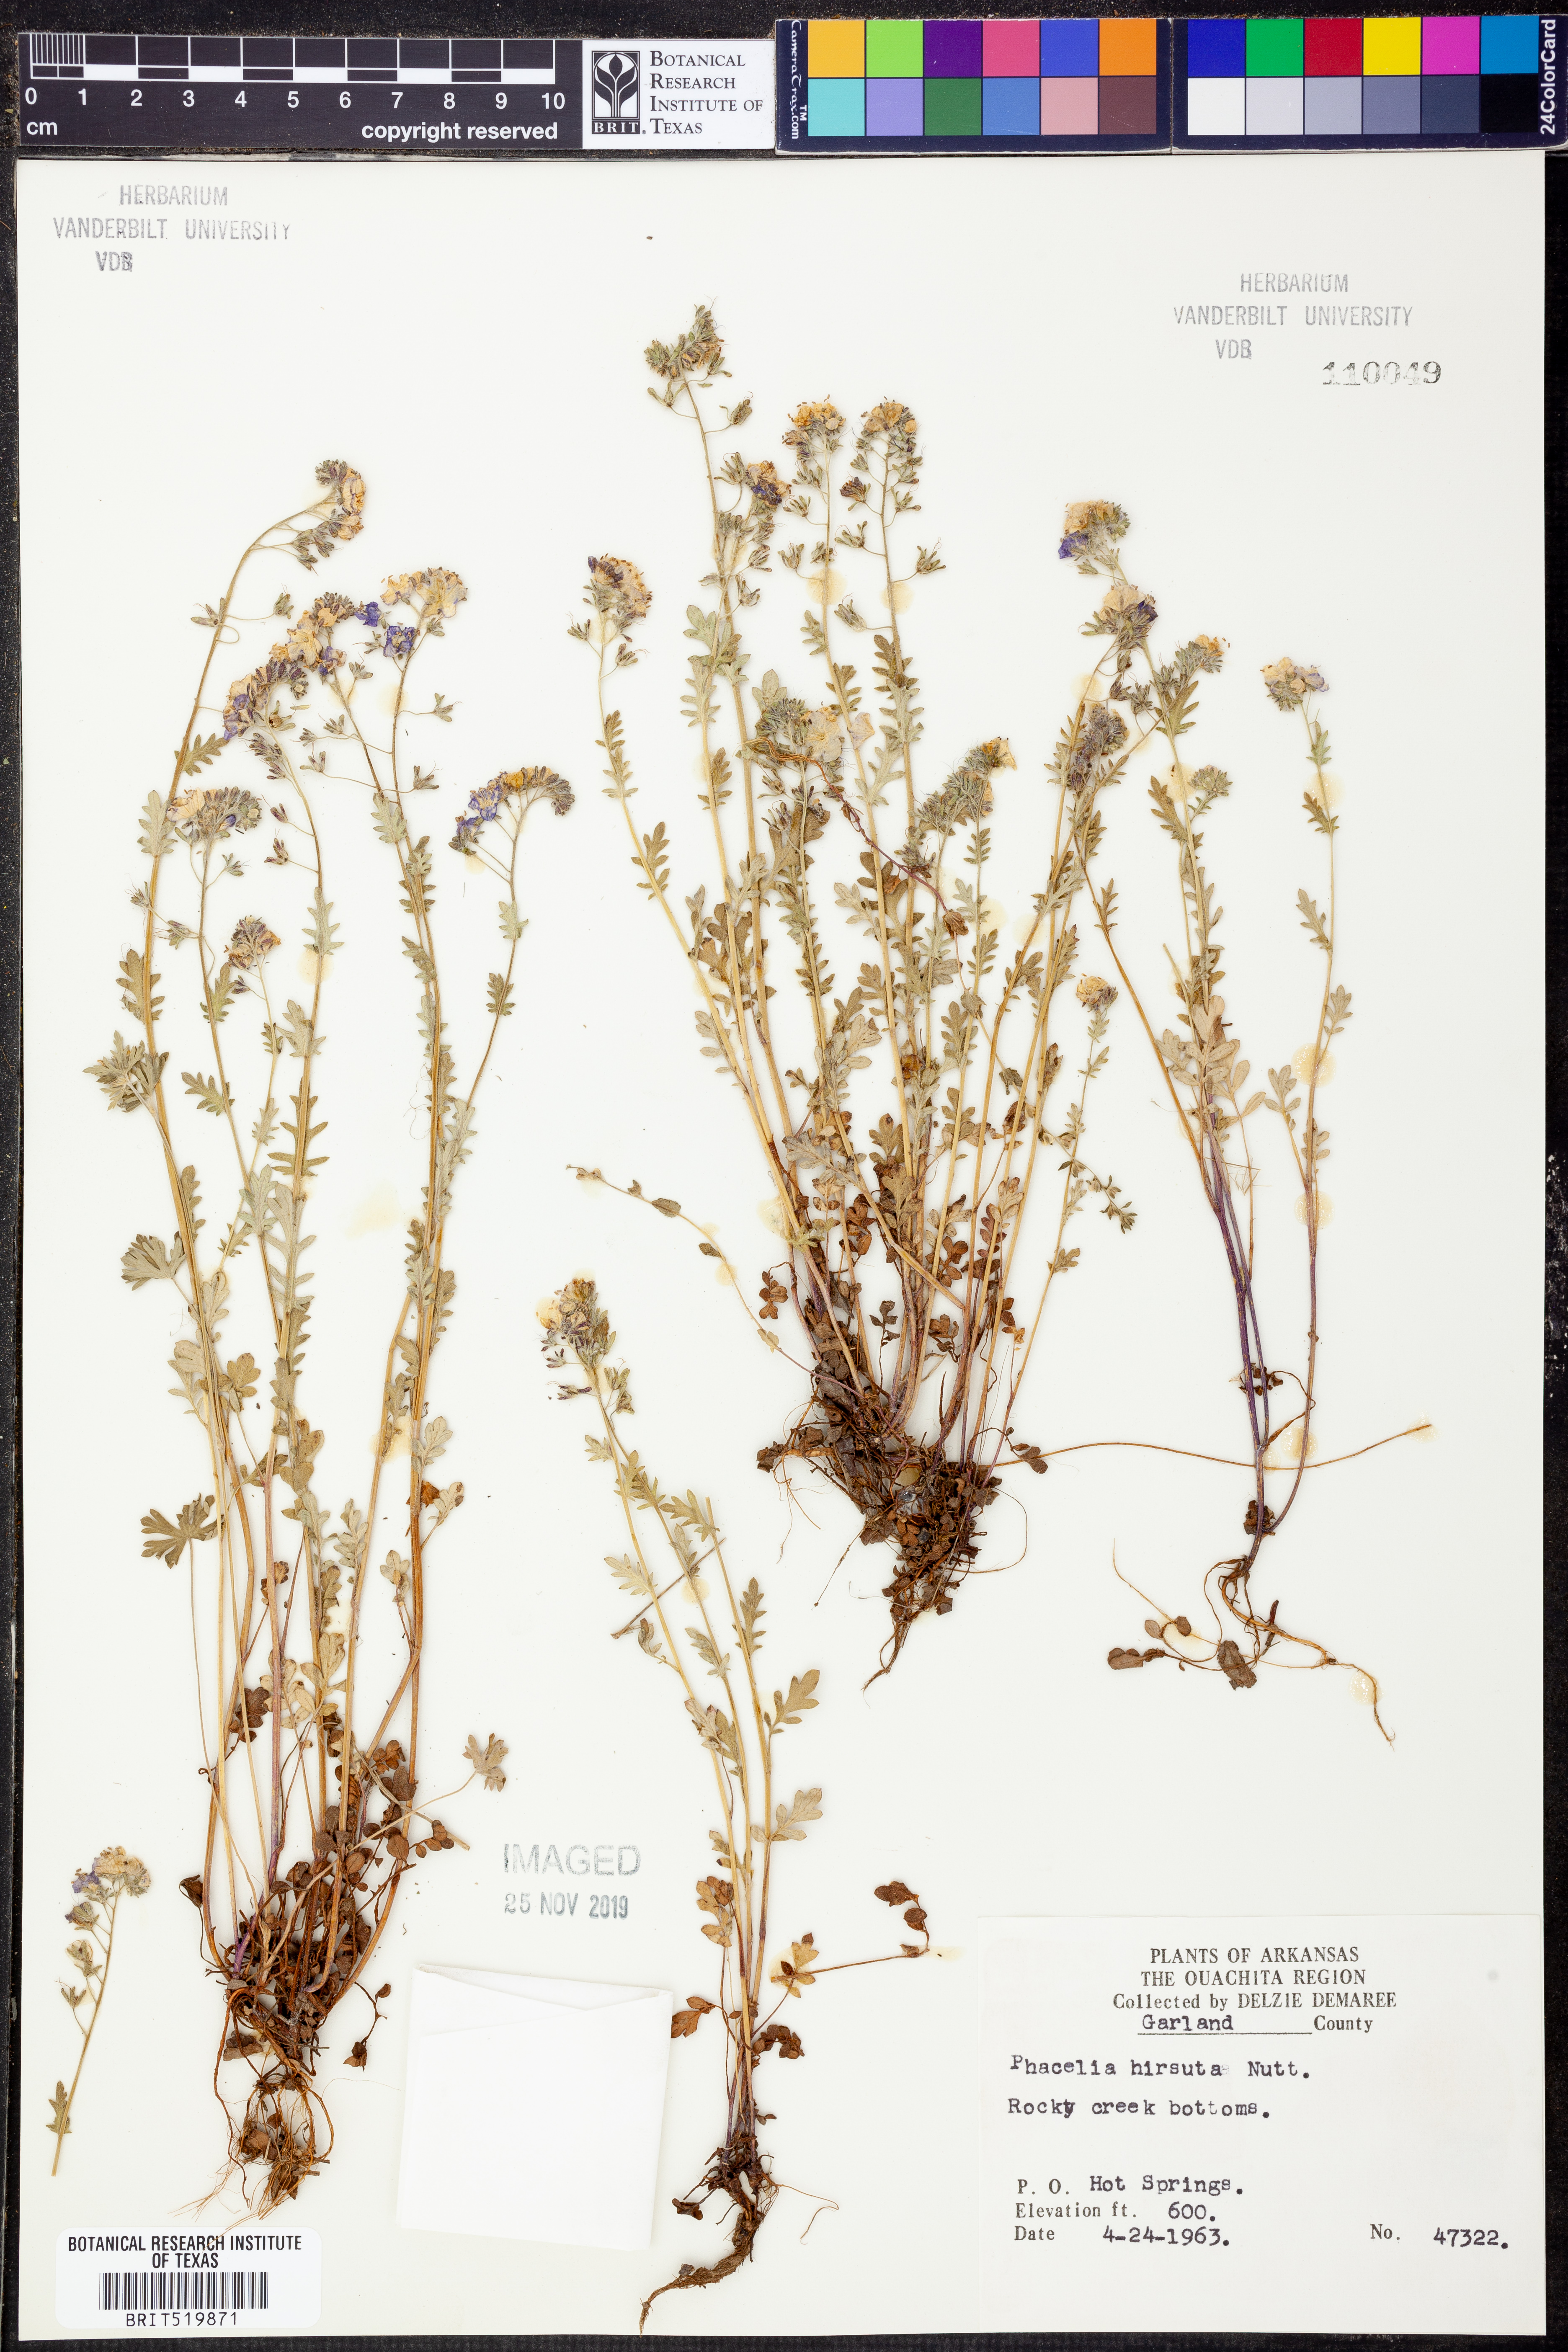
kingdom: Plantae
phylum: Tracheophyta
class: Magnoliopsida
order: Boraginales
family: Hydrophyllaceae
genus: Phacelia
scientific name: Phacelia hirsuta
